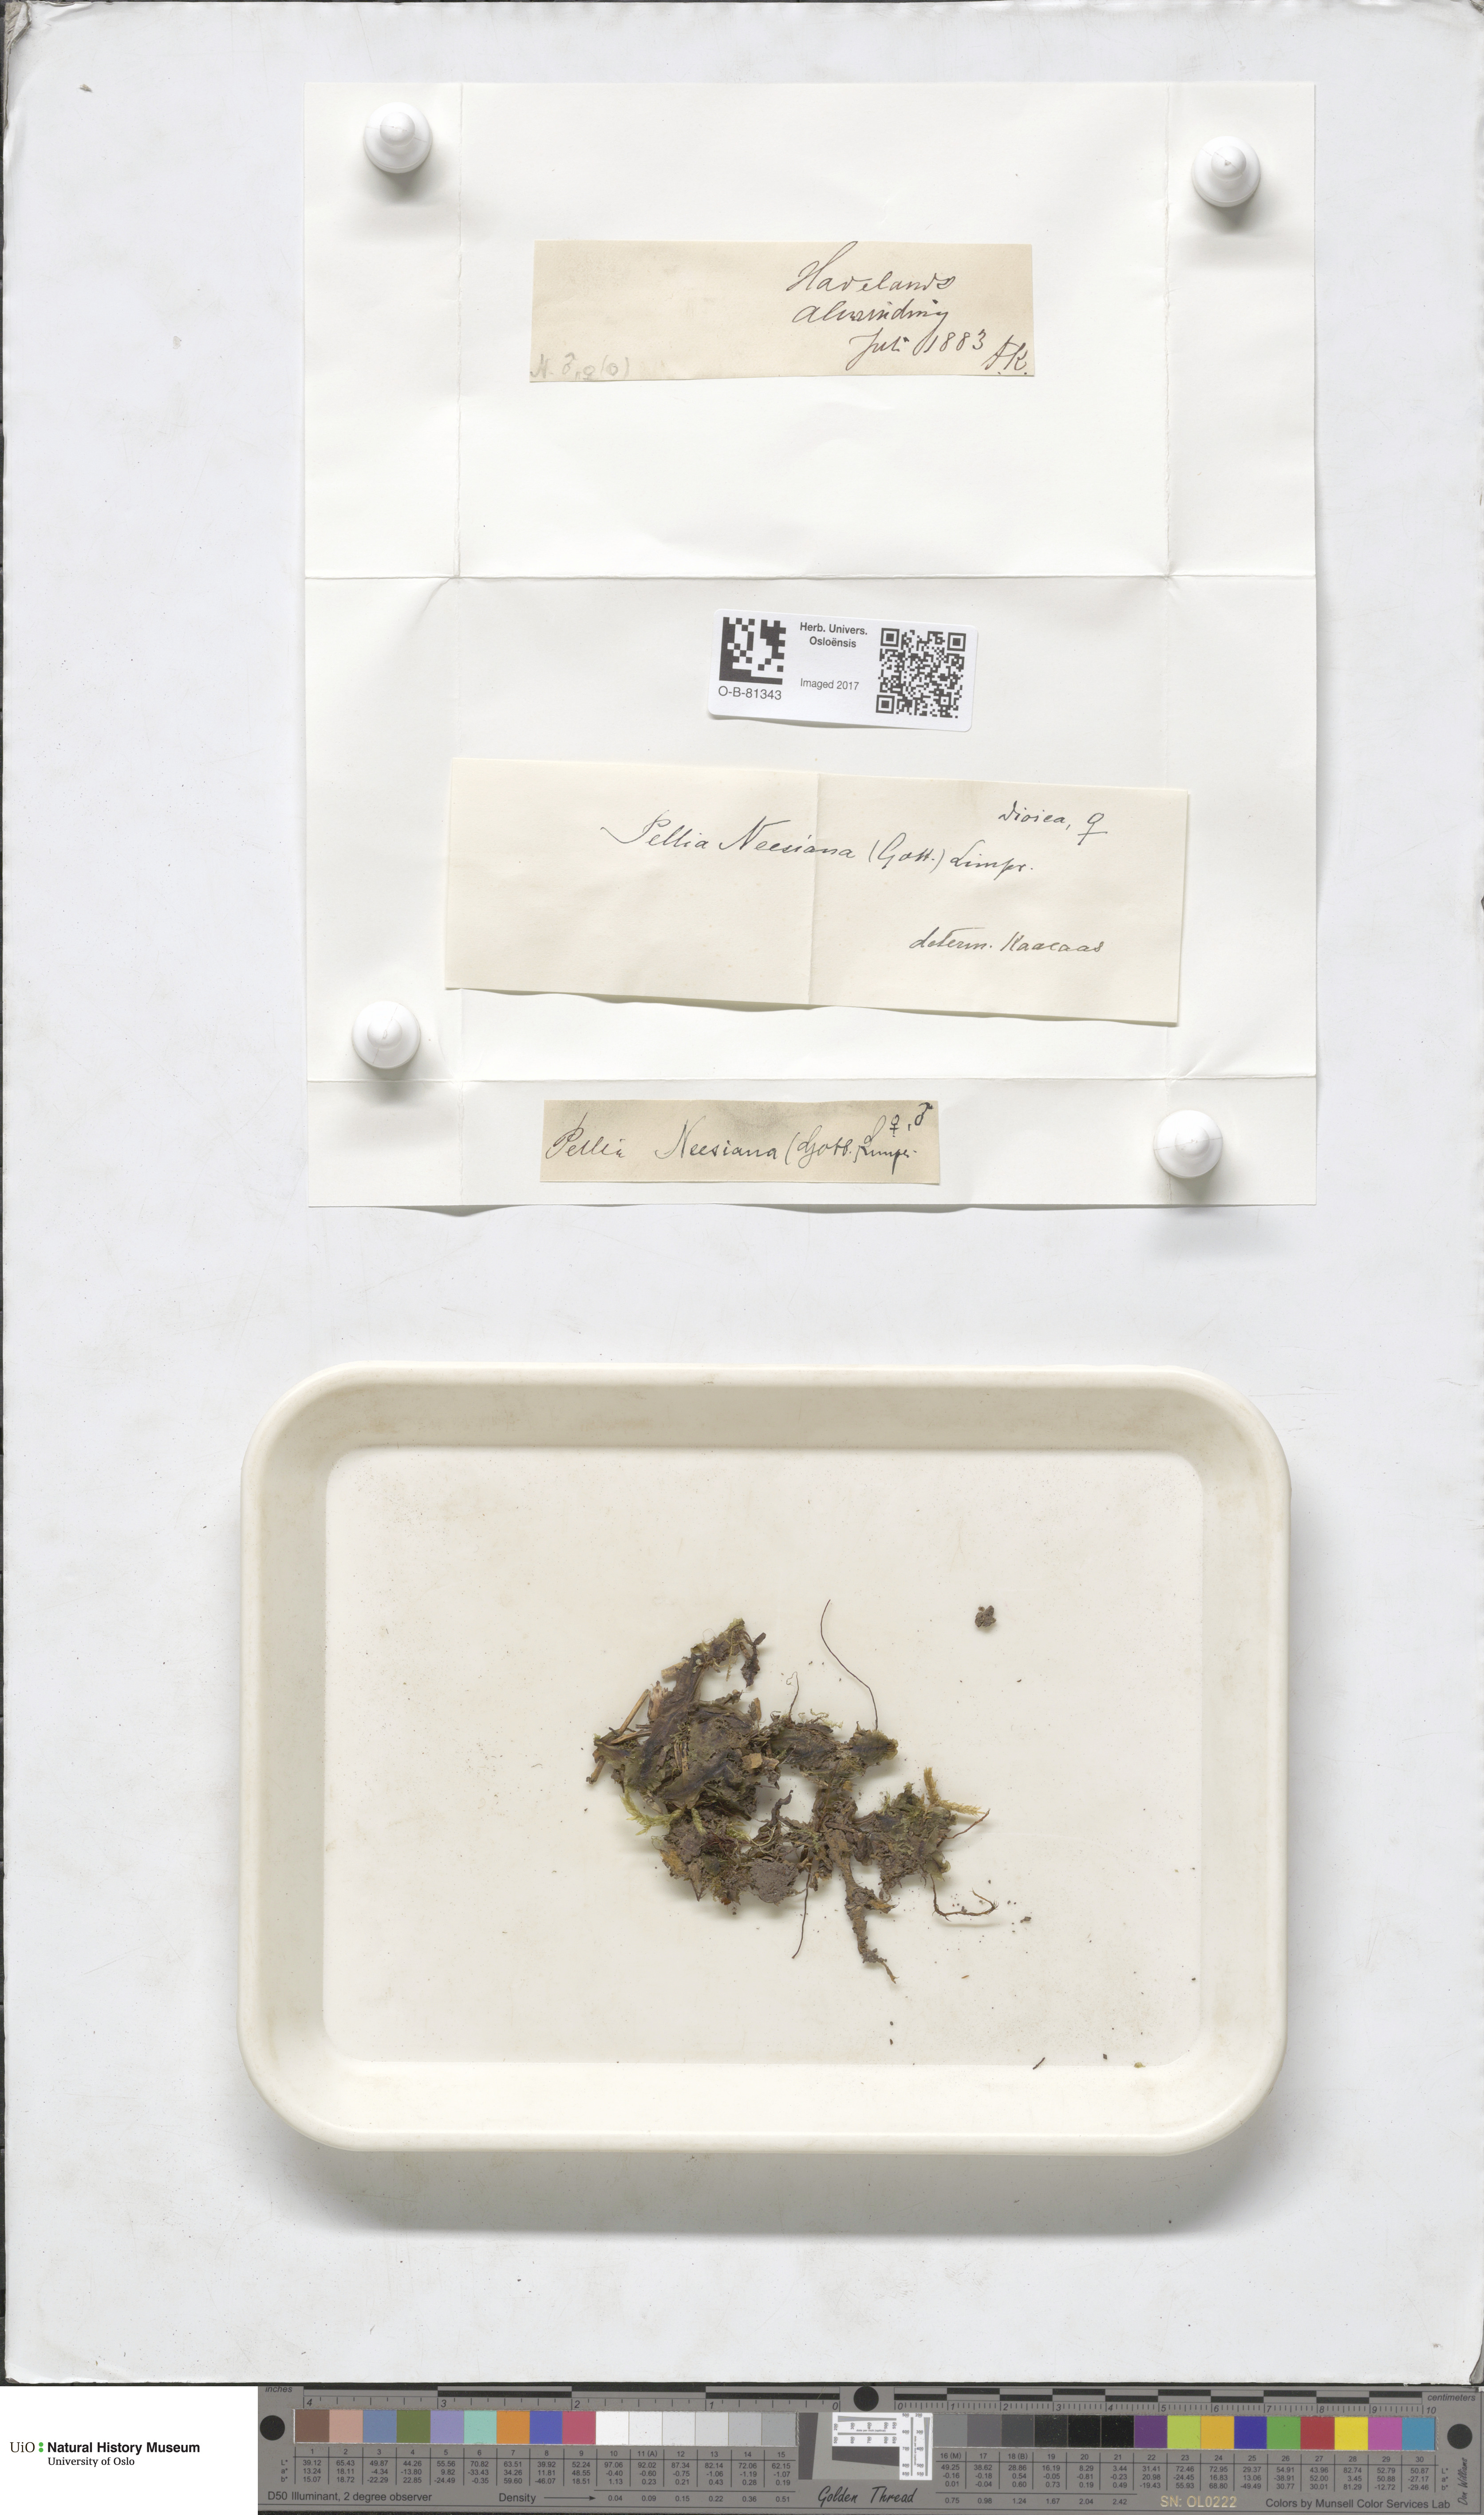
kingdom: Plantae
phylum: Marchantiophyta
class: Jungermanniopsida
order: Pelliales
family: Pelliaceae
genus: Pellia
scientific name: Pellia neesiana
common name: Nees  pellia
